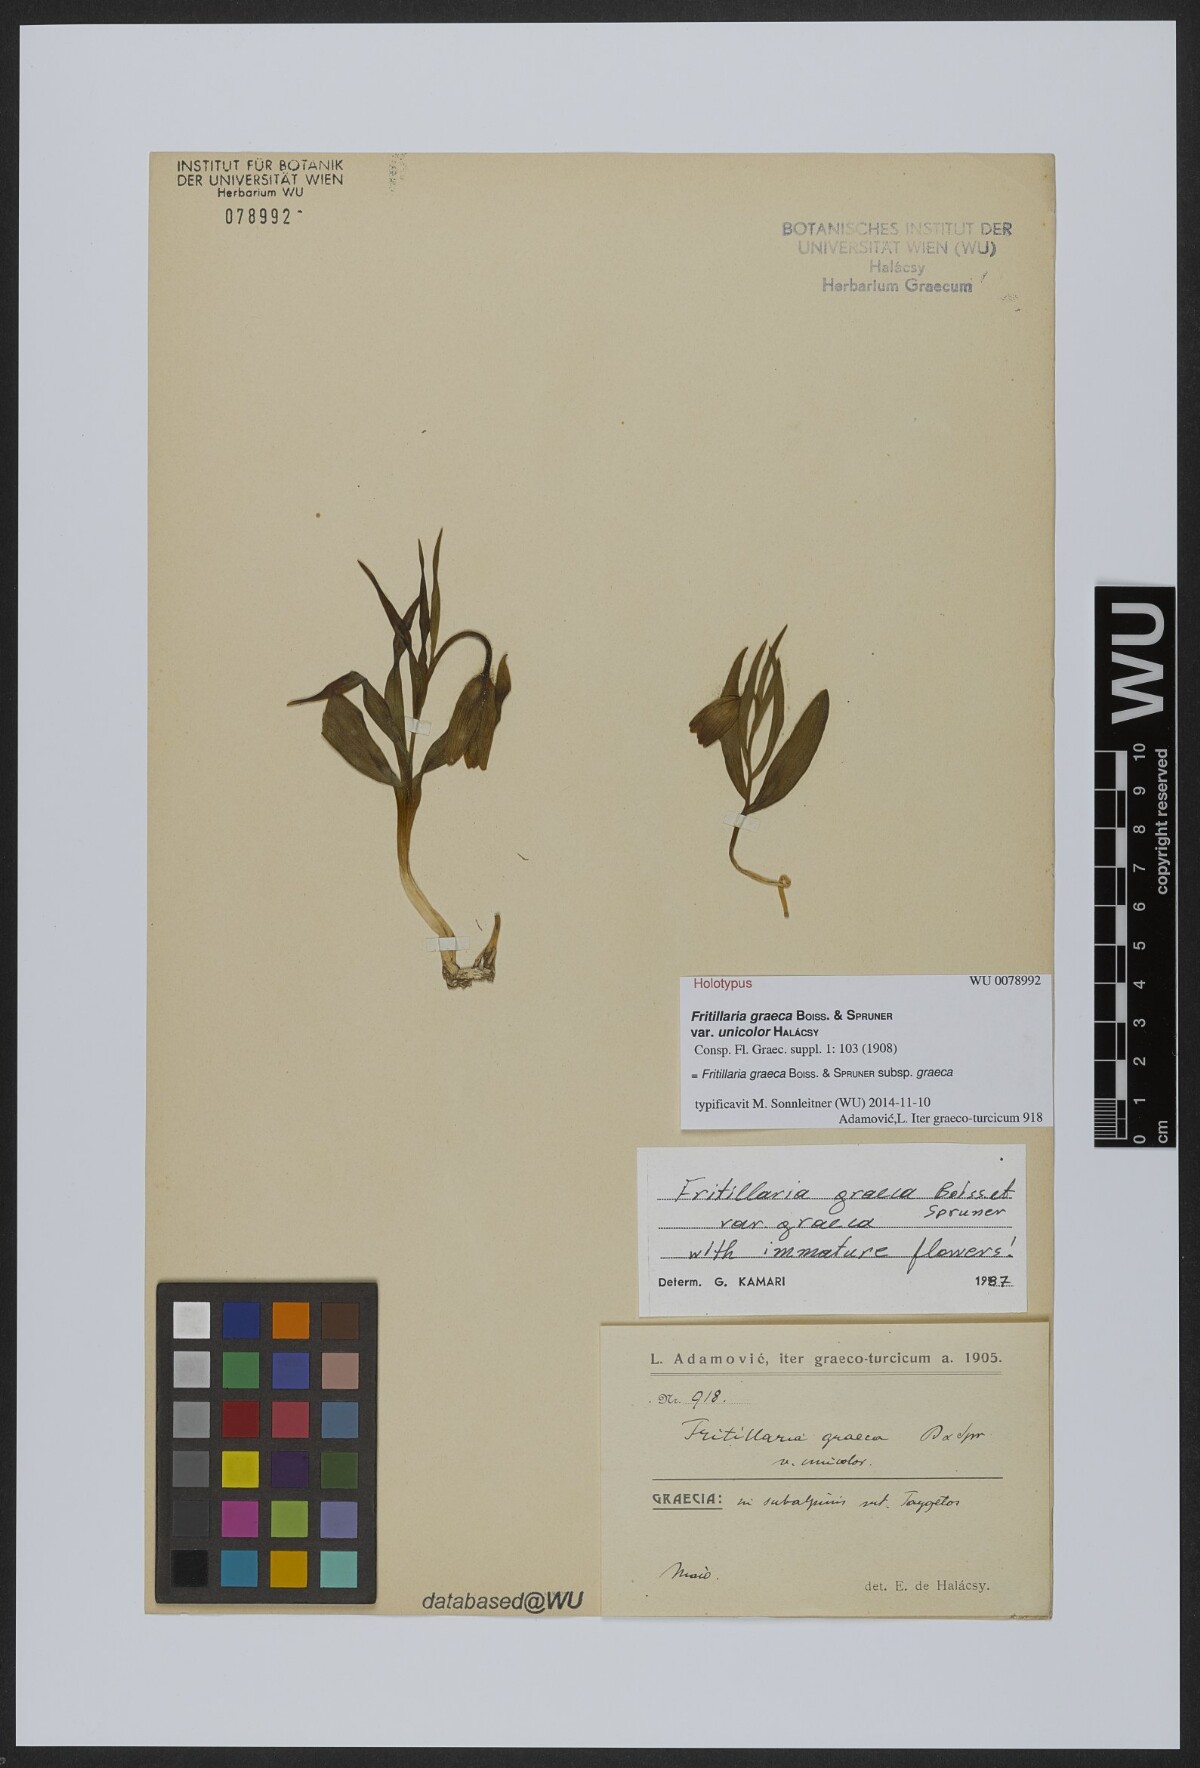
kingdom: Plantae
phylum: Tracheophyta
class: Liliopsida
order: Liliales
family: Liliaceae
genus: Fritillaria
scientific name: Fritillaria graeca
